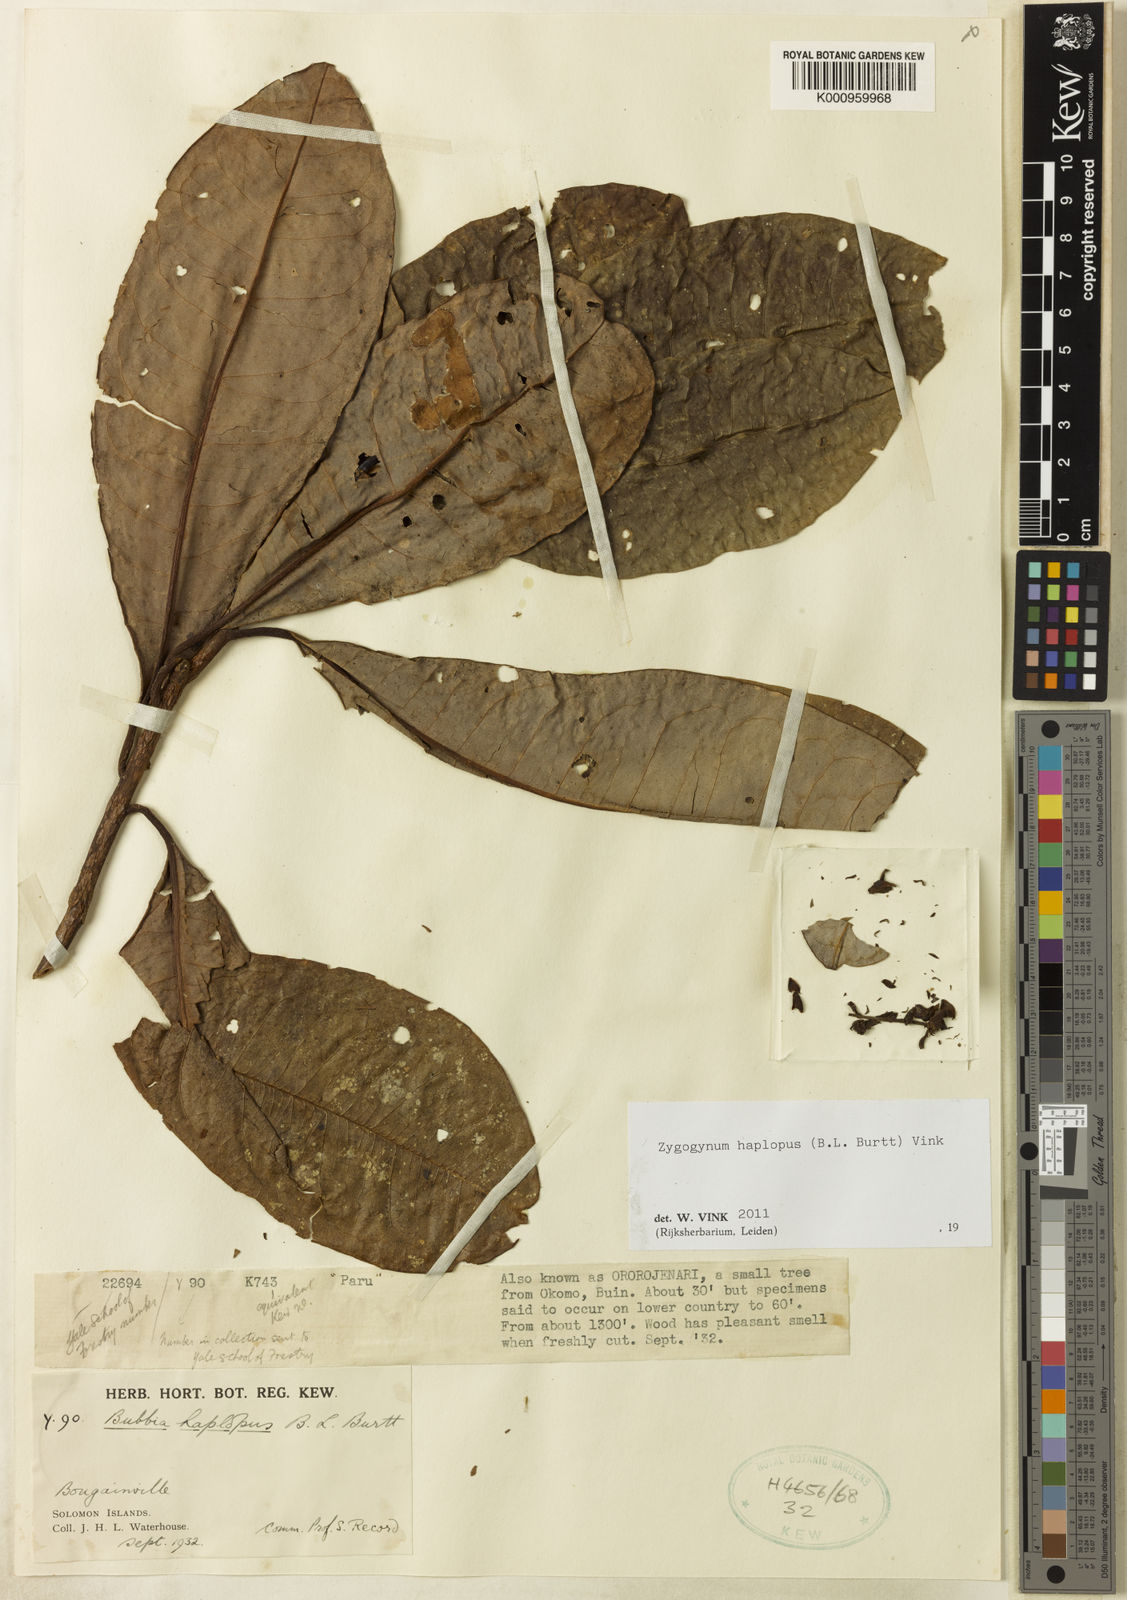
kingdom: Plantae
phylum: Tracheophyta
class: Magnoliopsida
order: Canellales
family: Winteraceae
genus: Zygogynum
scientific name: Zygogynum haplopus
